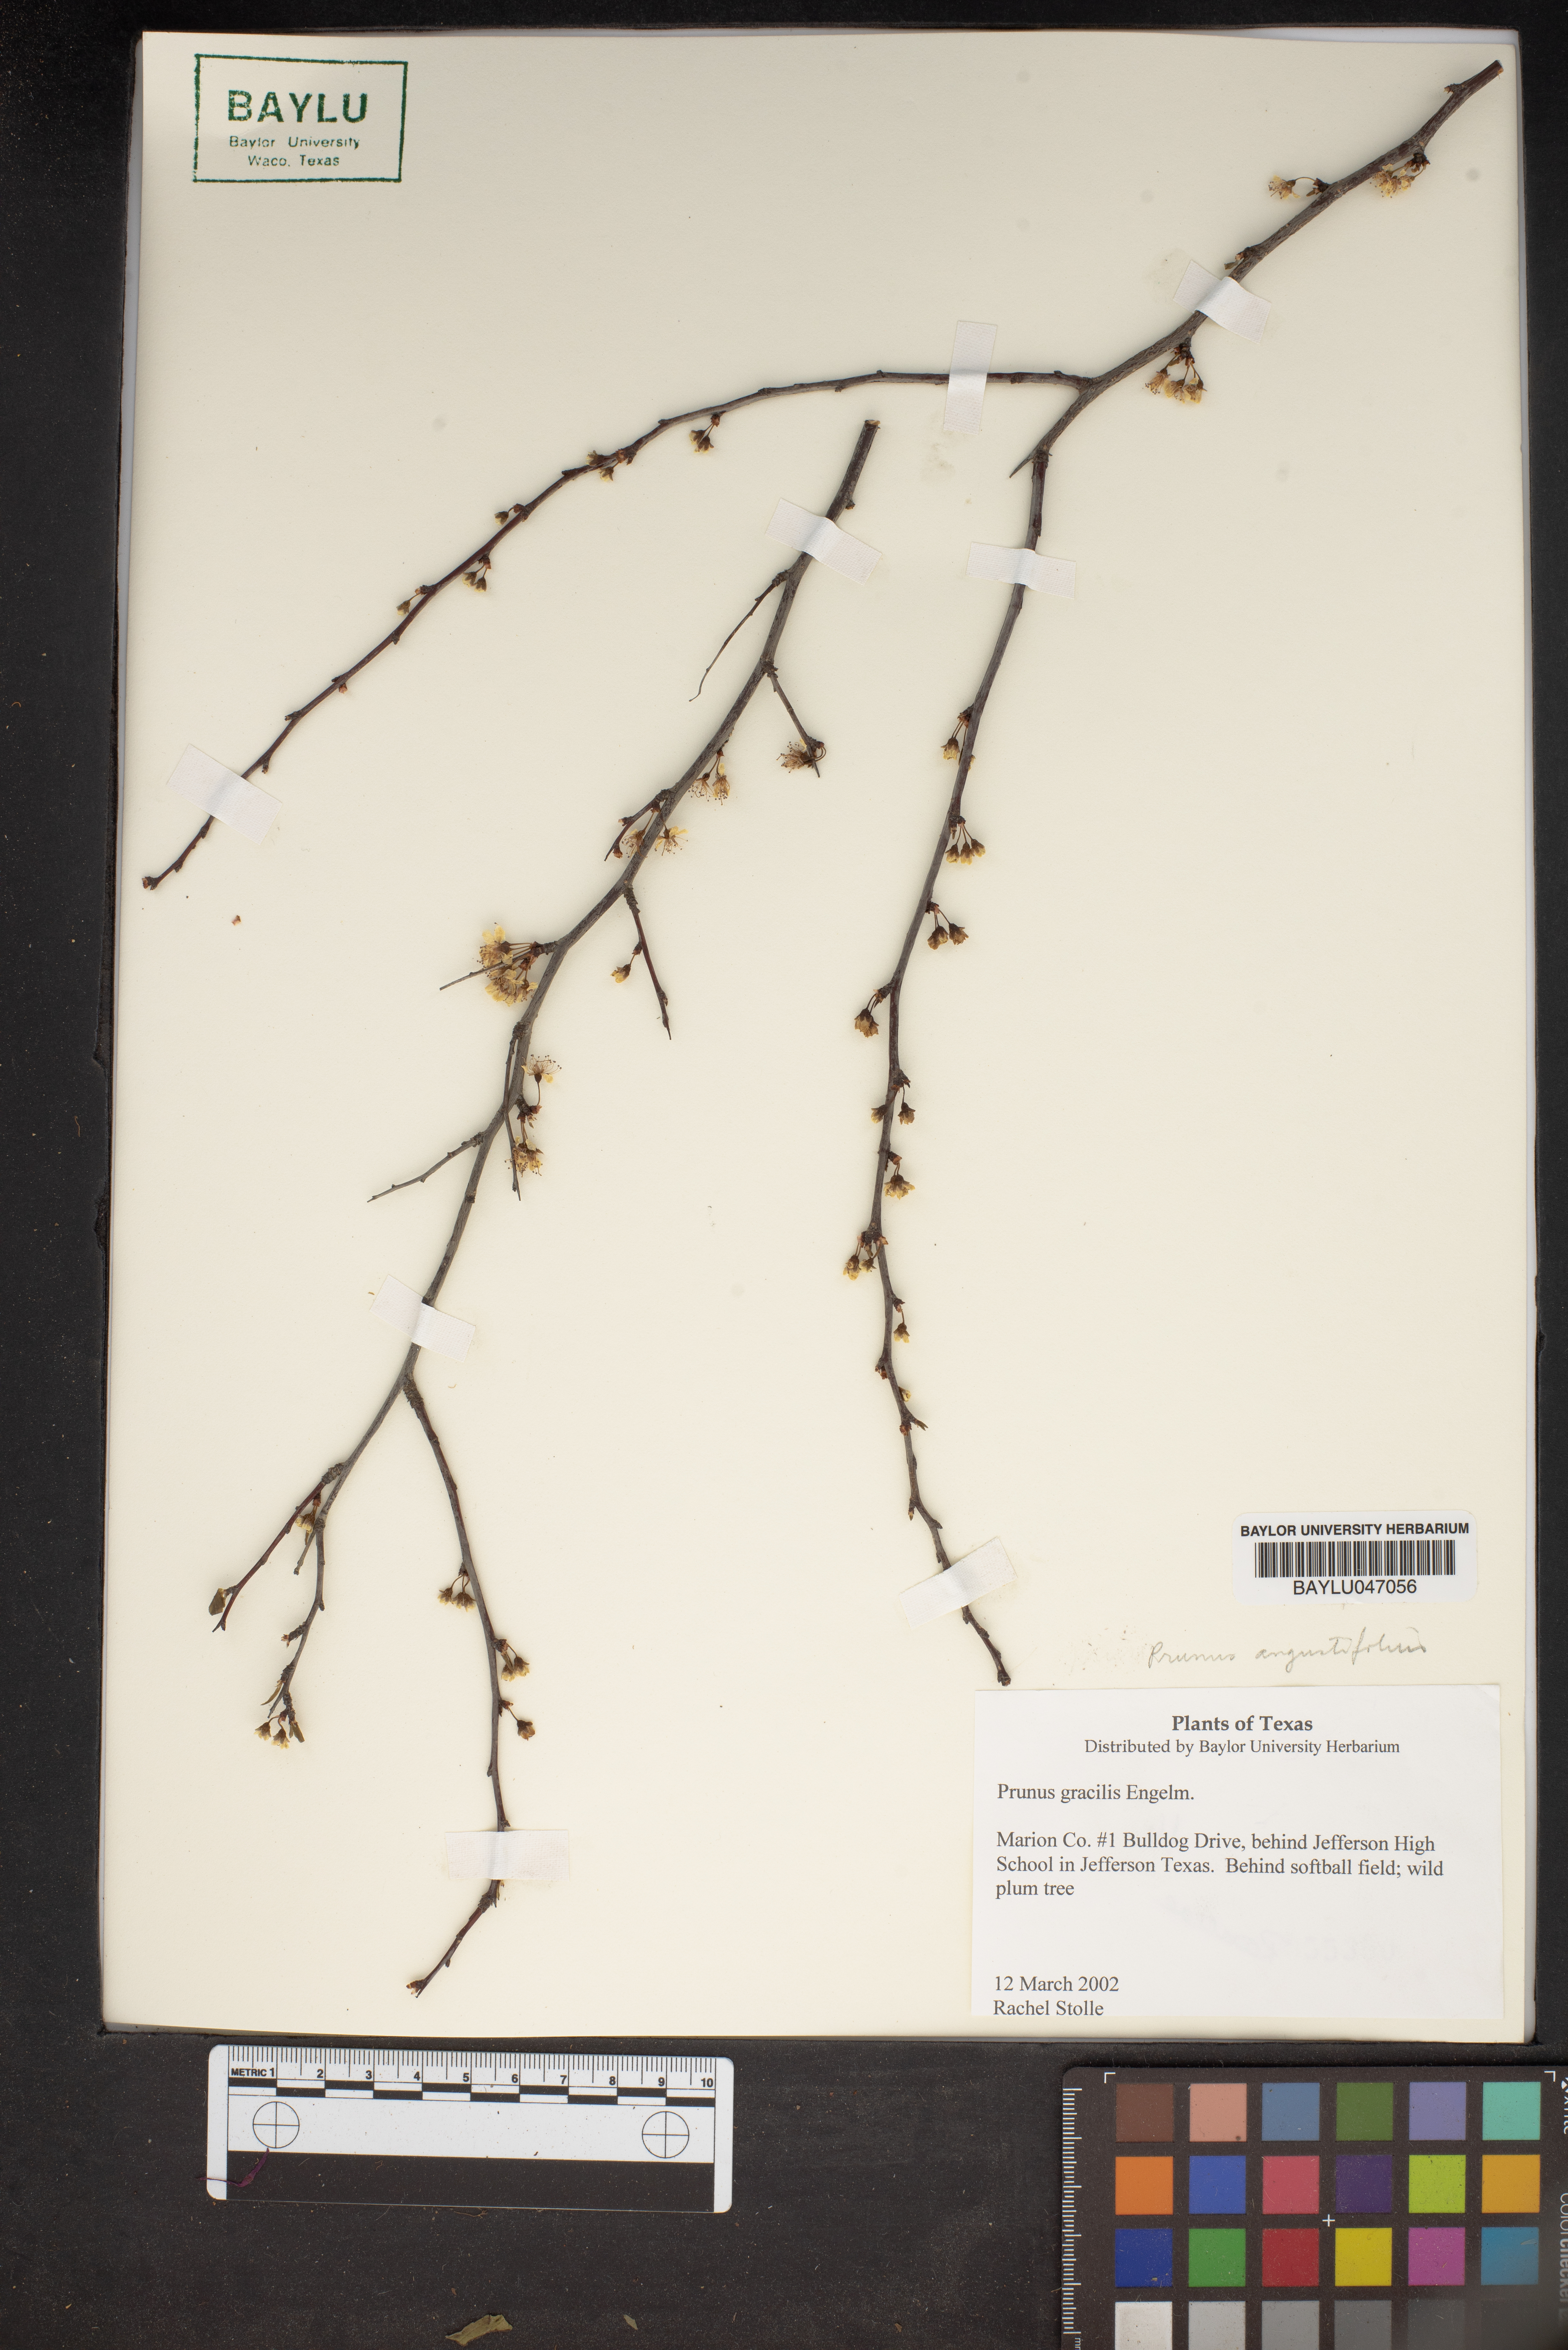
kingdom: Plantae
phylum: Tracheophyta
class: Magnoliopsida
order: Rosales
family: Rosaceae
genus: Prunus
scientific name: Prunus gracilis
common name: Oklahoma plum
